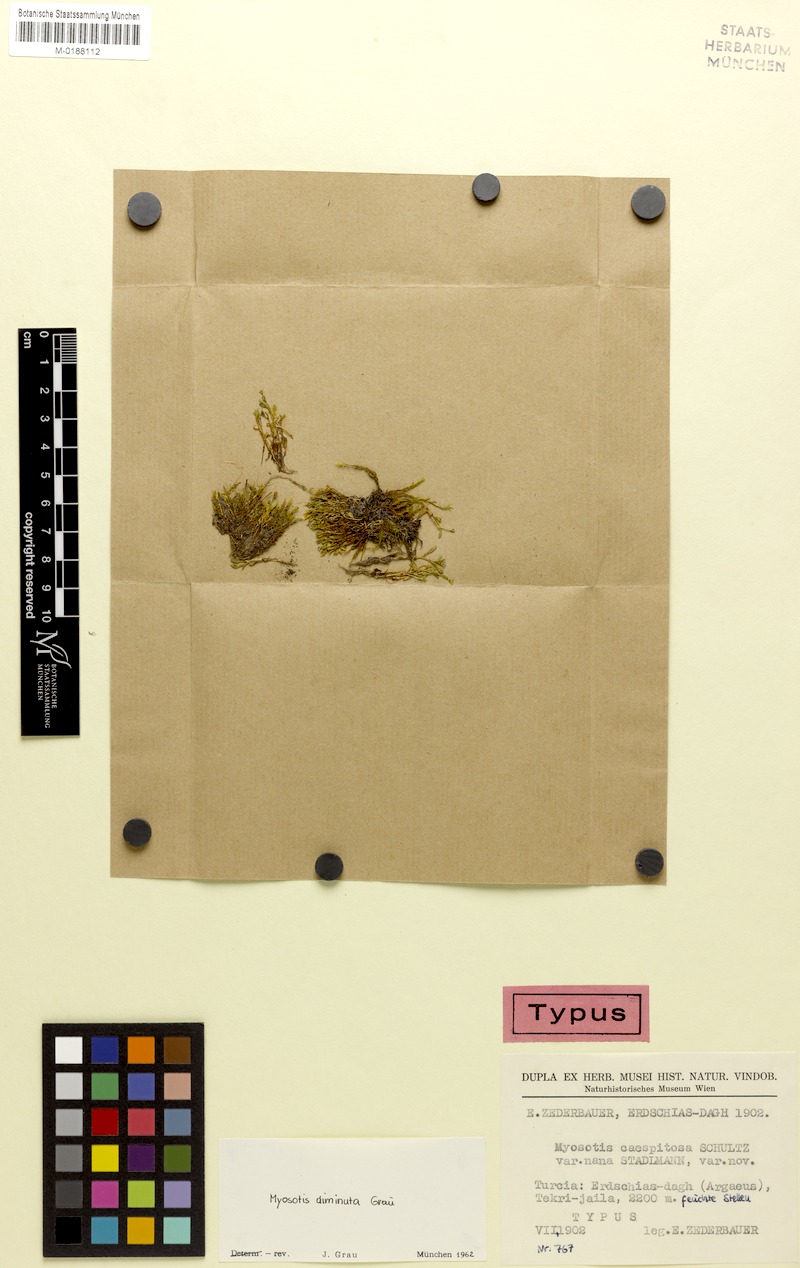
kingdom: Plantae
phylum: Tracheophyta
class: Magnoliopsida
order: Boraginales
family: Boraginaceae
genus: Myosotis
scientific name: Myosotis laxa
